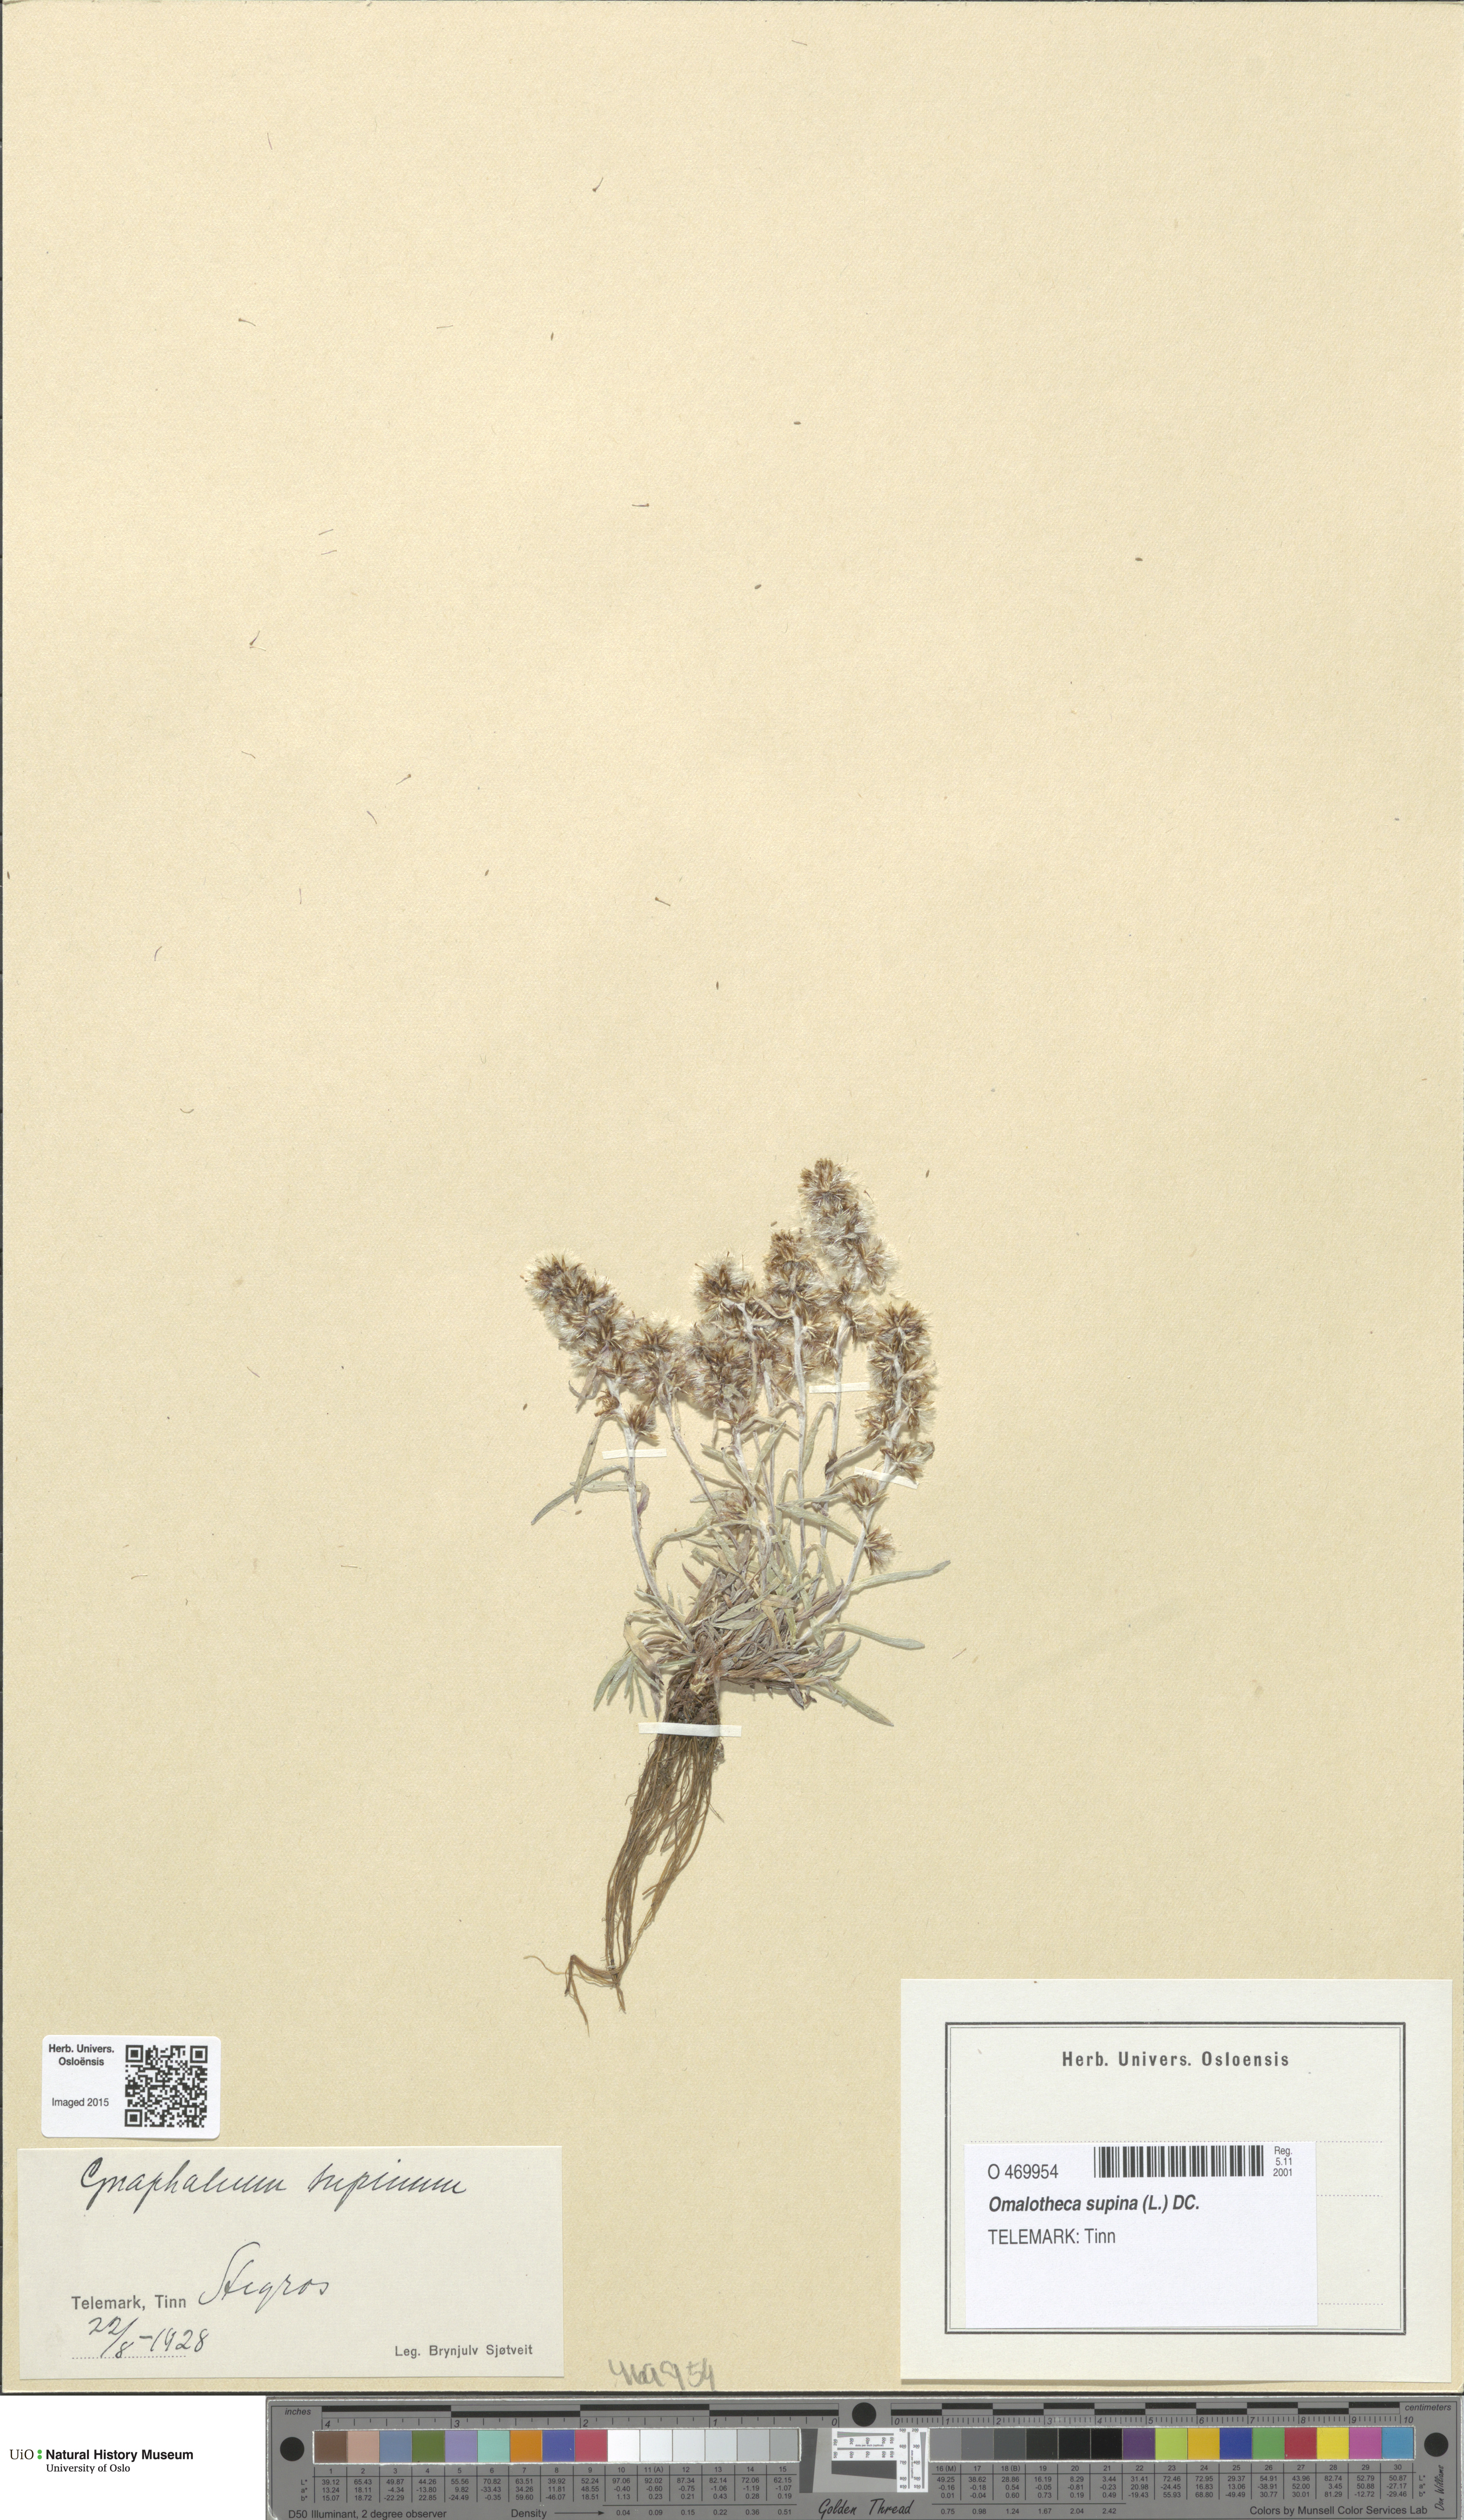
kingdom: Plantae
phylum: Tracheophyta
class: Magnoliopsida
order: Asterales
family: Asteraceae
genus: Omalotheca
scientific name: Omalotheca supina
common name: Alpine arctic-cudweed
